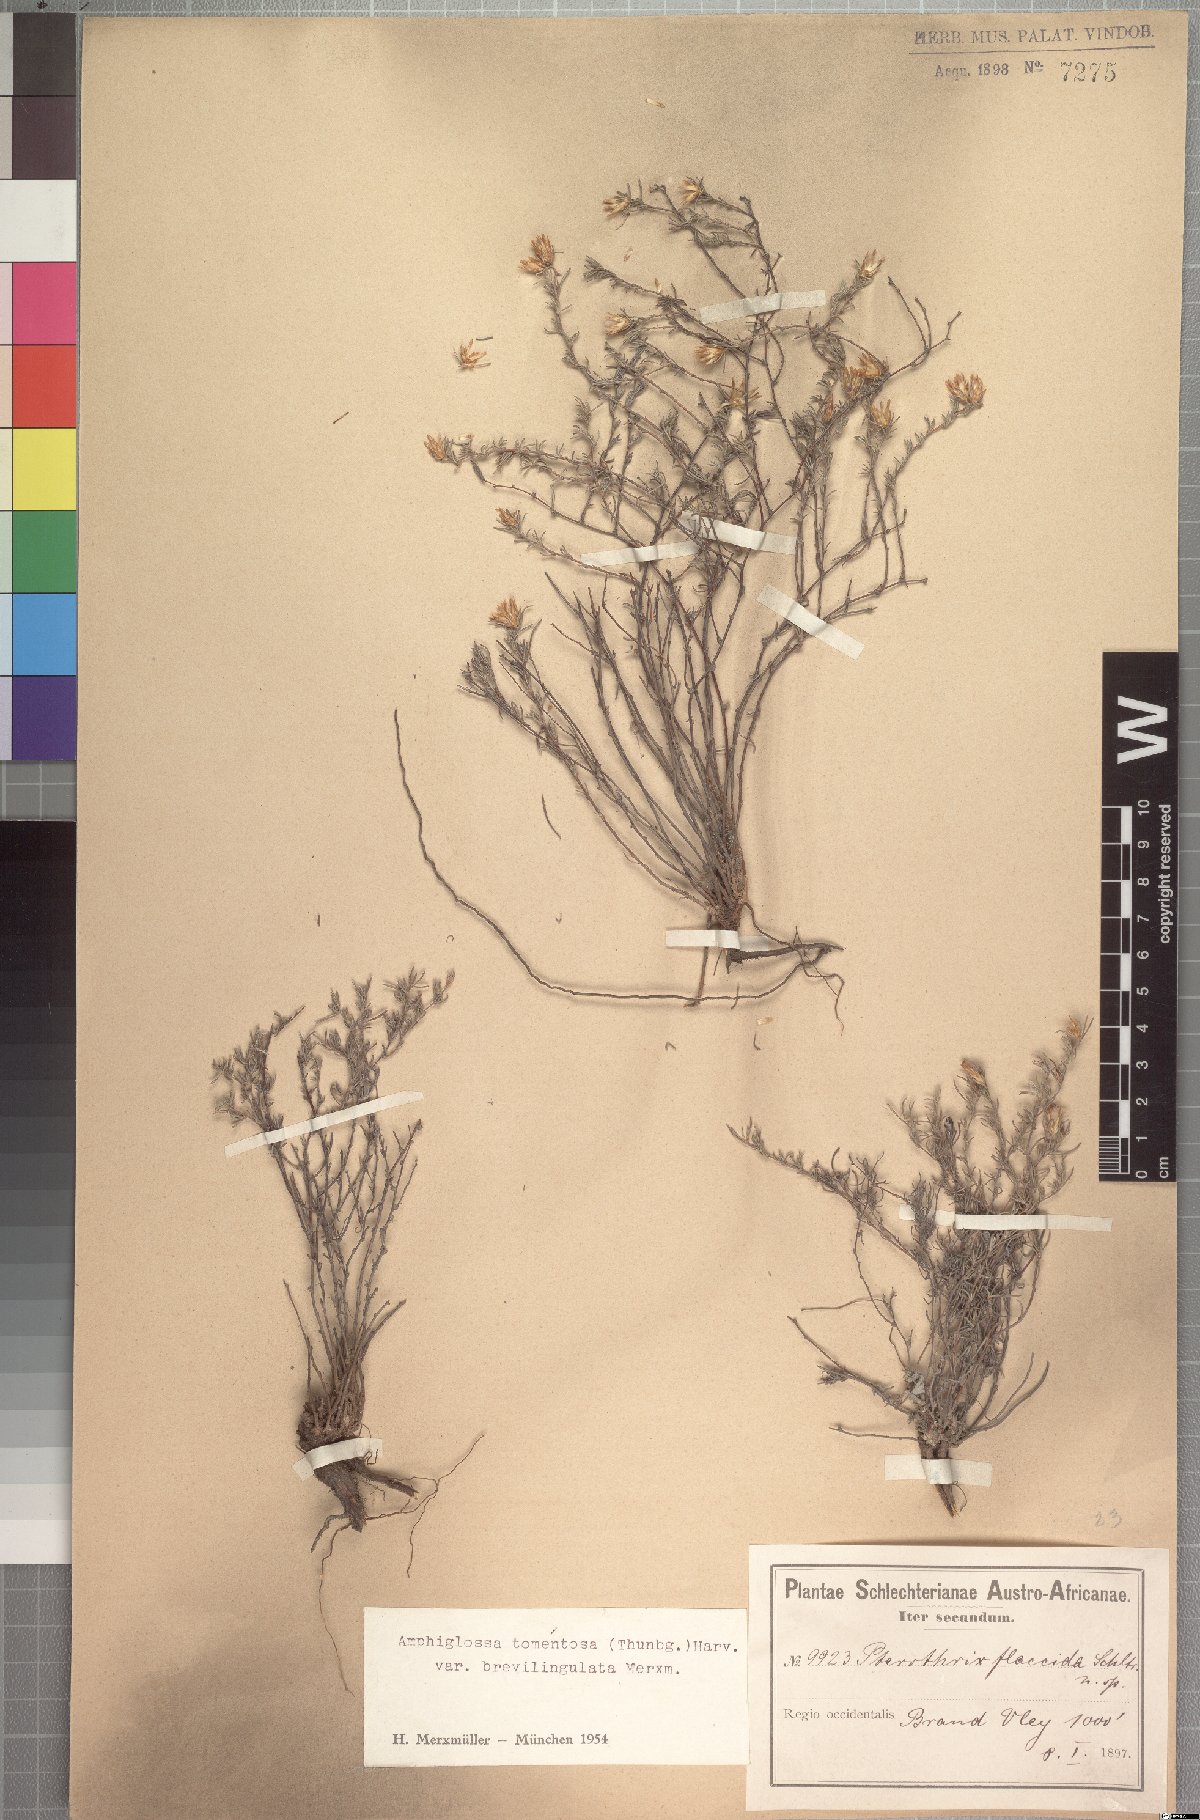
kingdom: Plantae
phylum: Tracheophyta
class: Magnoliopsida
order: Asterales
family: Asteraceae
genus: Amphiglossa
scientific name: Amphiglossa tomentosa
